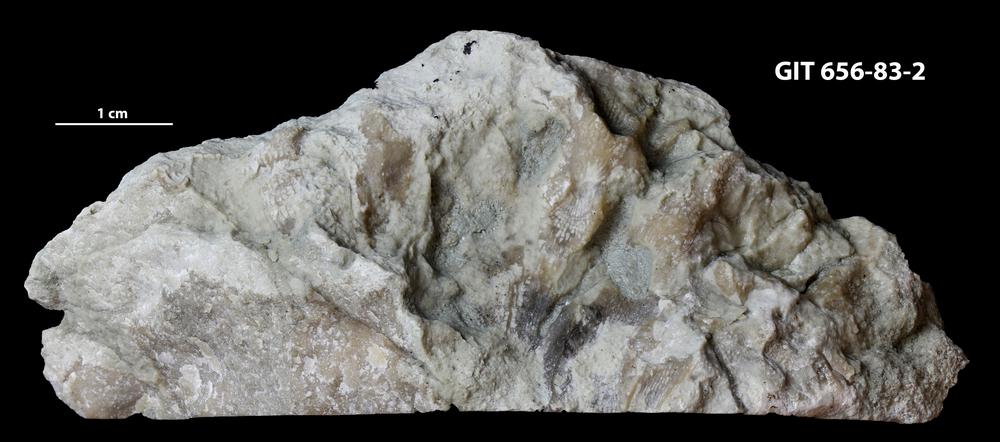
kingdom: Animalia
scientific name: Animalia
